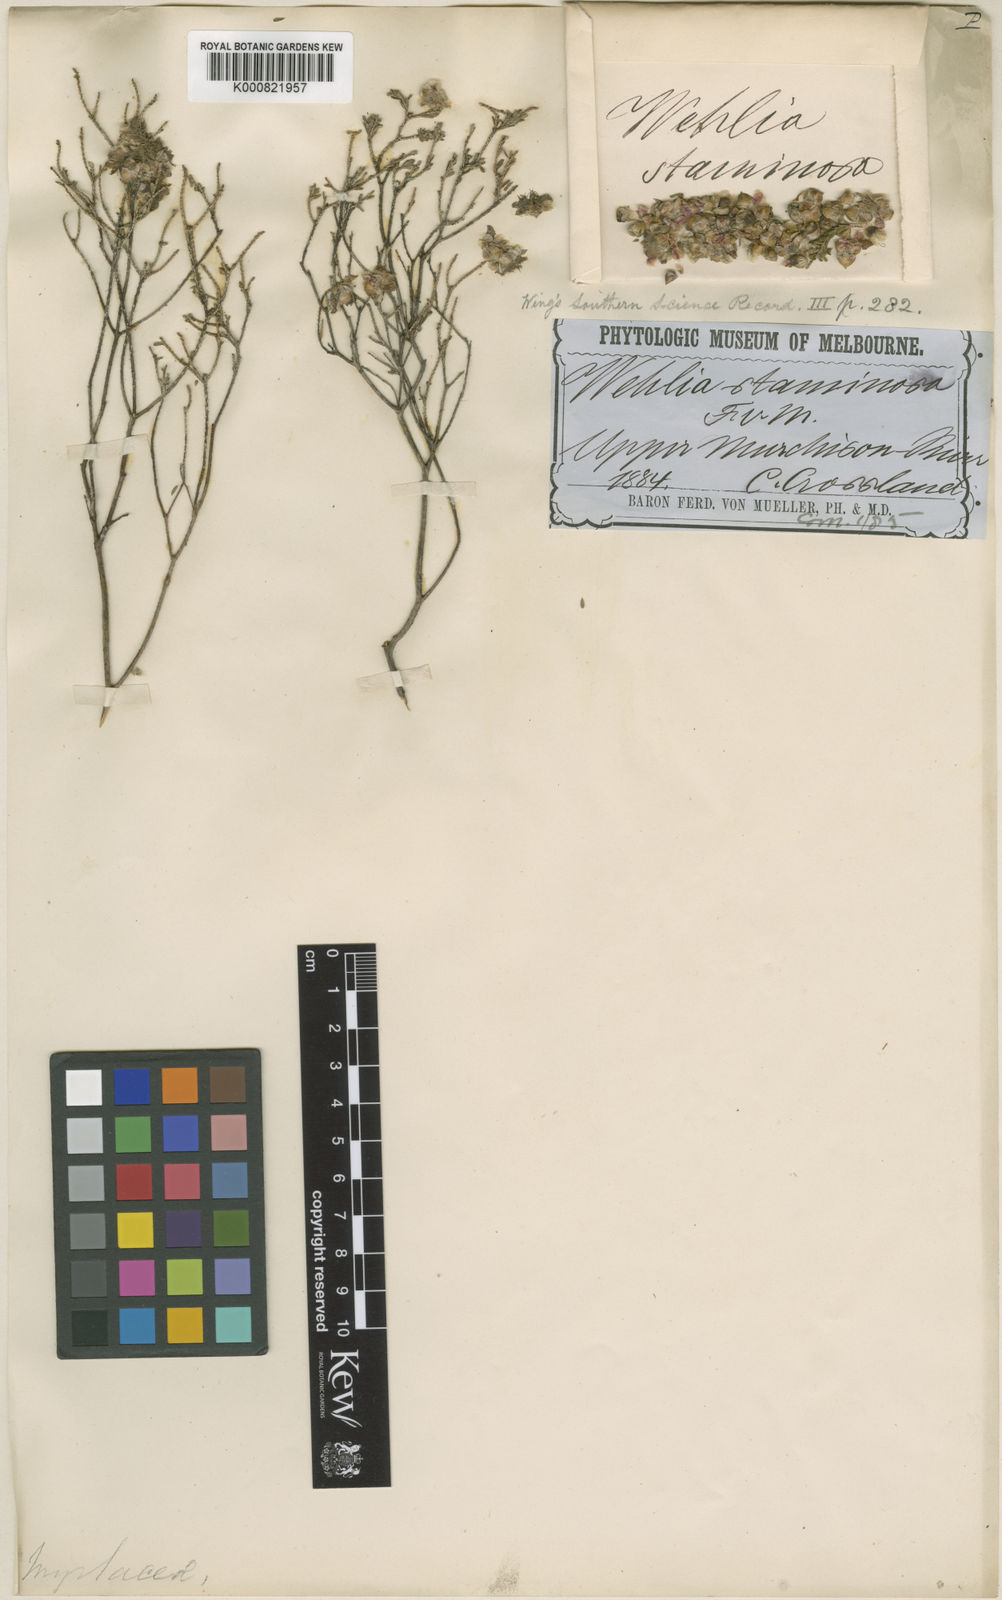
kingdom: Plantae
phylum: Tracheophyta
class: Magnoliopsida
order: Myrtales
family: Myrtaceae
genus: Homalocalyx
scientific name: Homalocalyx staminosus
